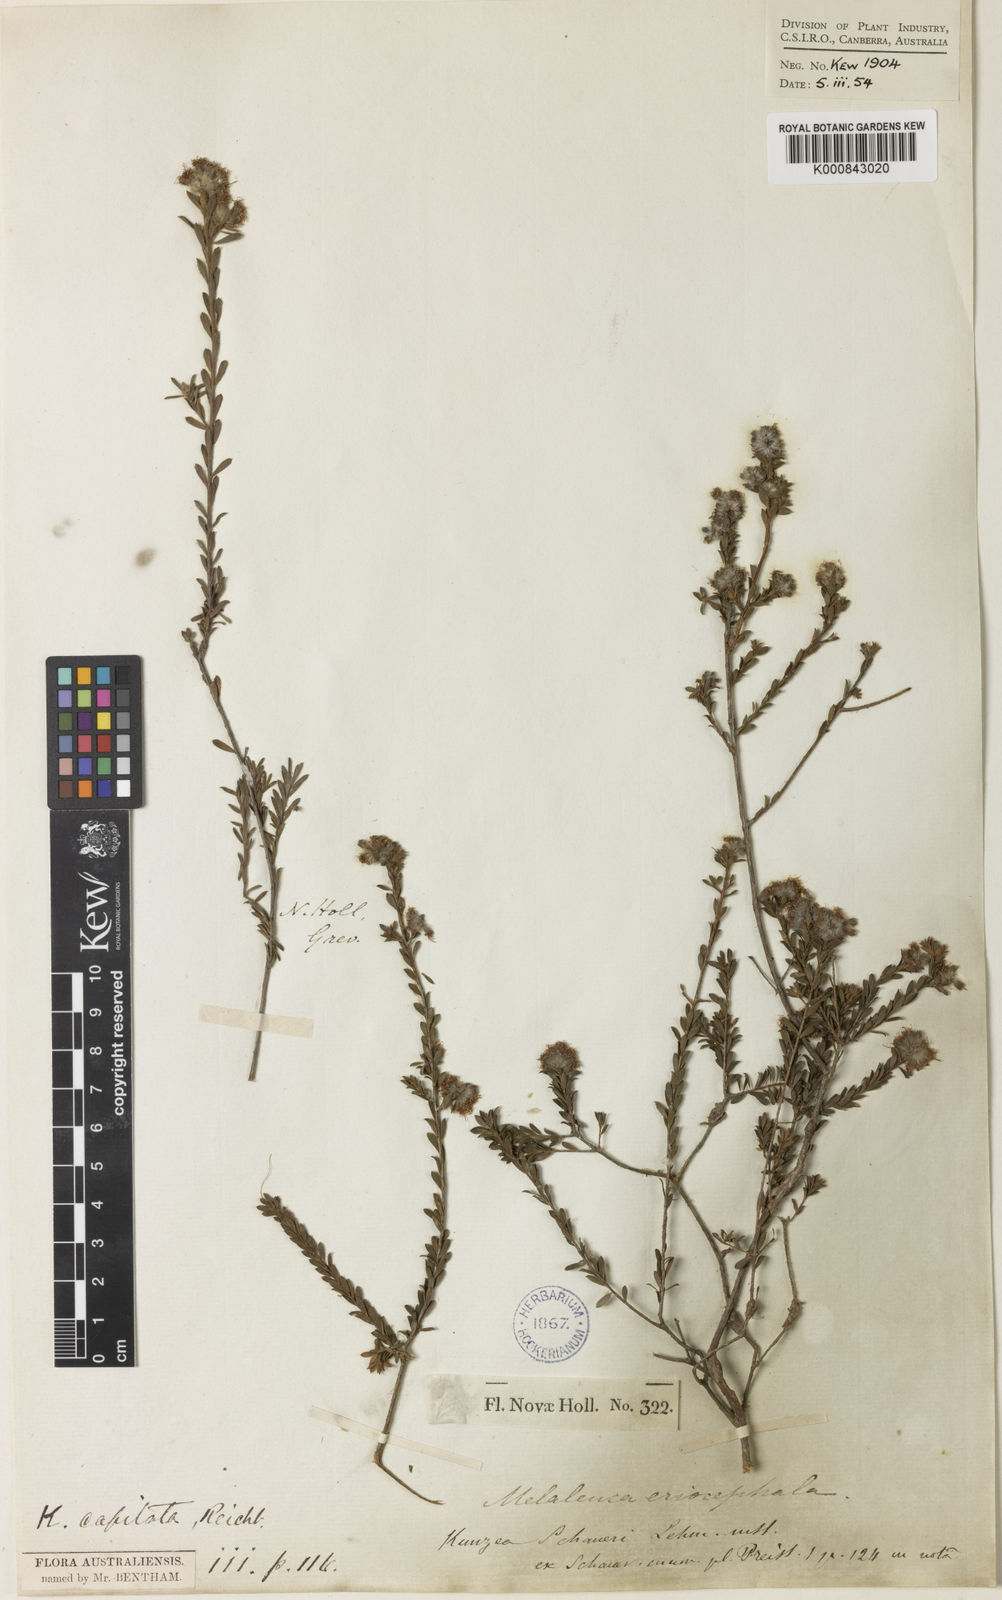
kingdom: Plantae
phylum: Tracheophyta
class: Magnoliopsida
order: Myrtales
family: Myrtaceae
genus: Kunzea
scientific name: Kunzea
